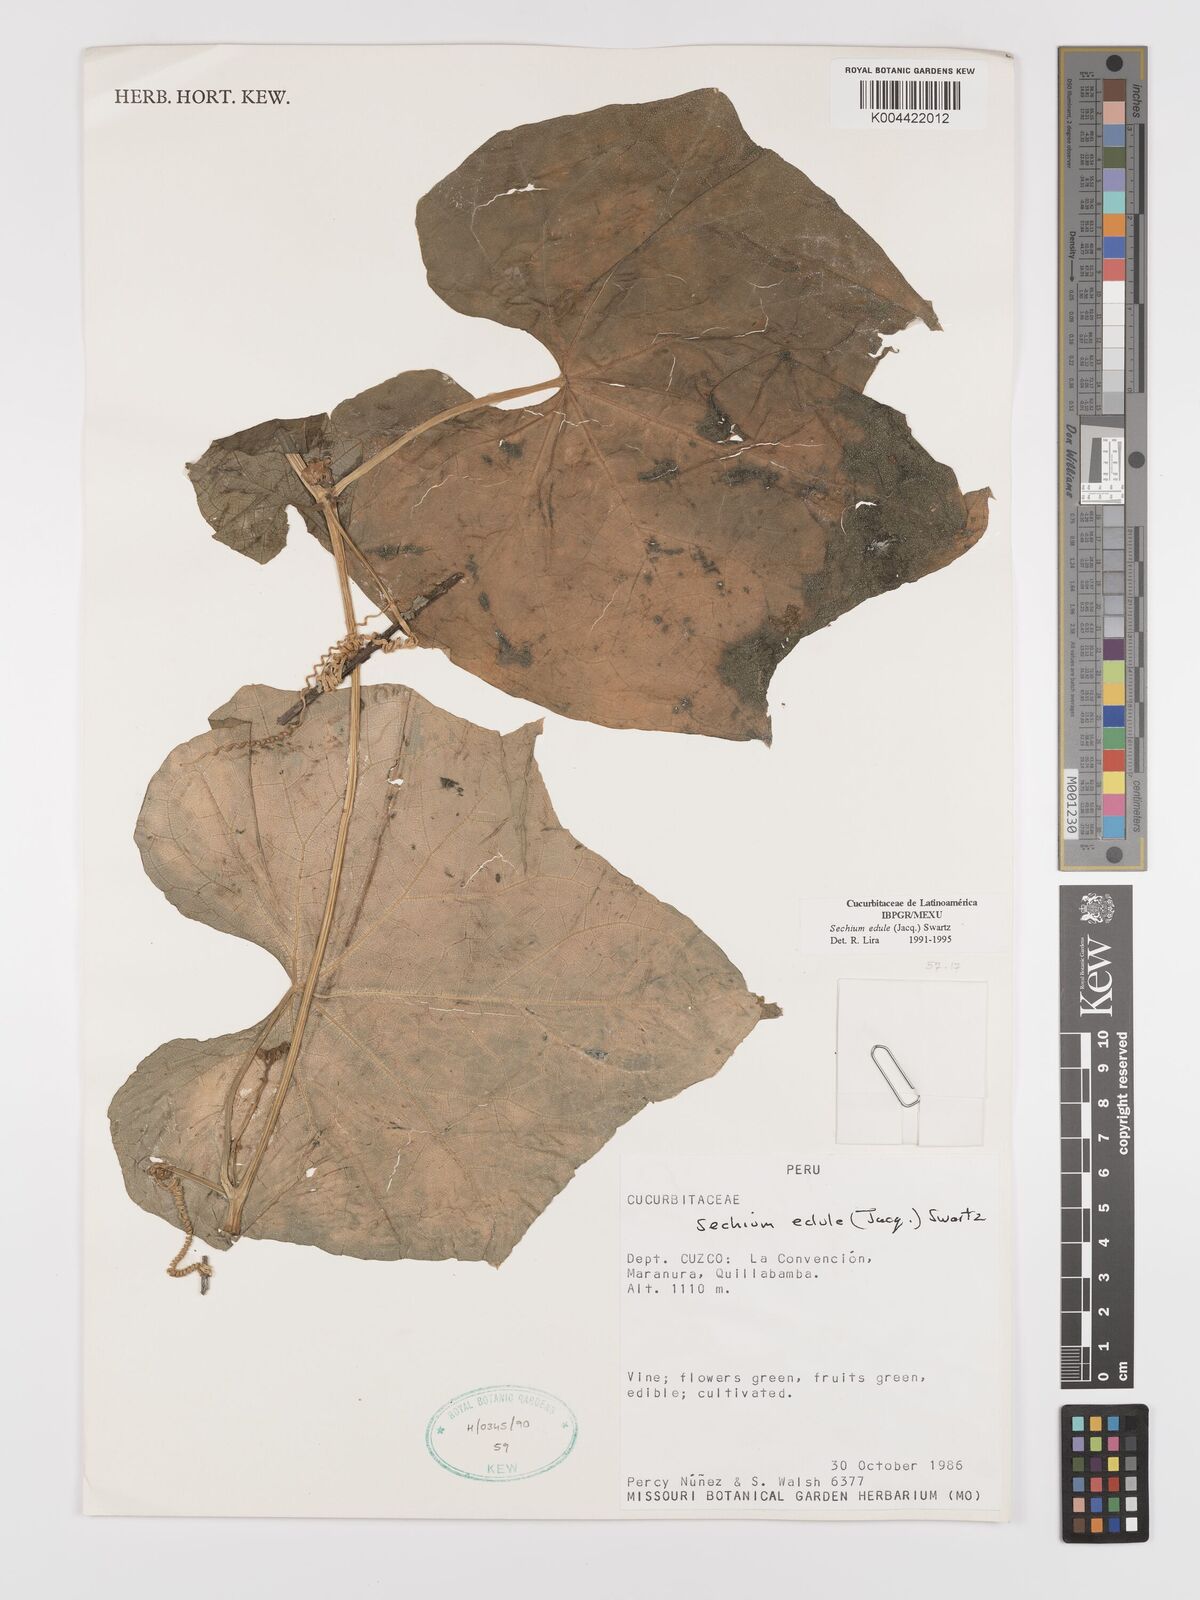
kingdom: Plantae
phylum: Tracheophyta
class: Magnoliopsida
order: Cucurbitales
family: Cucurbitaceae
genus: Sechium
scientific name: Sechium edule
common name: Chayote
